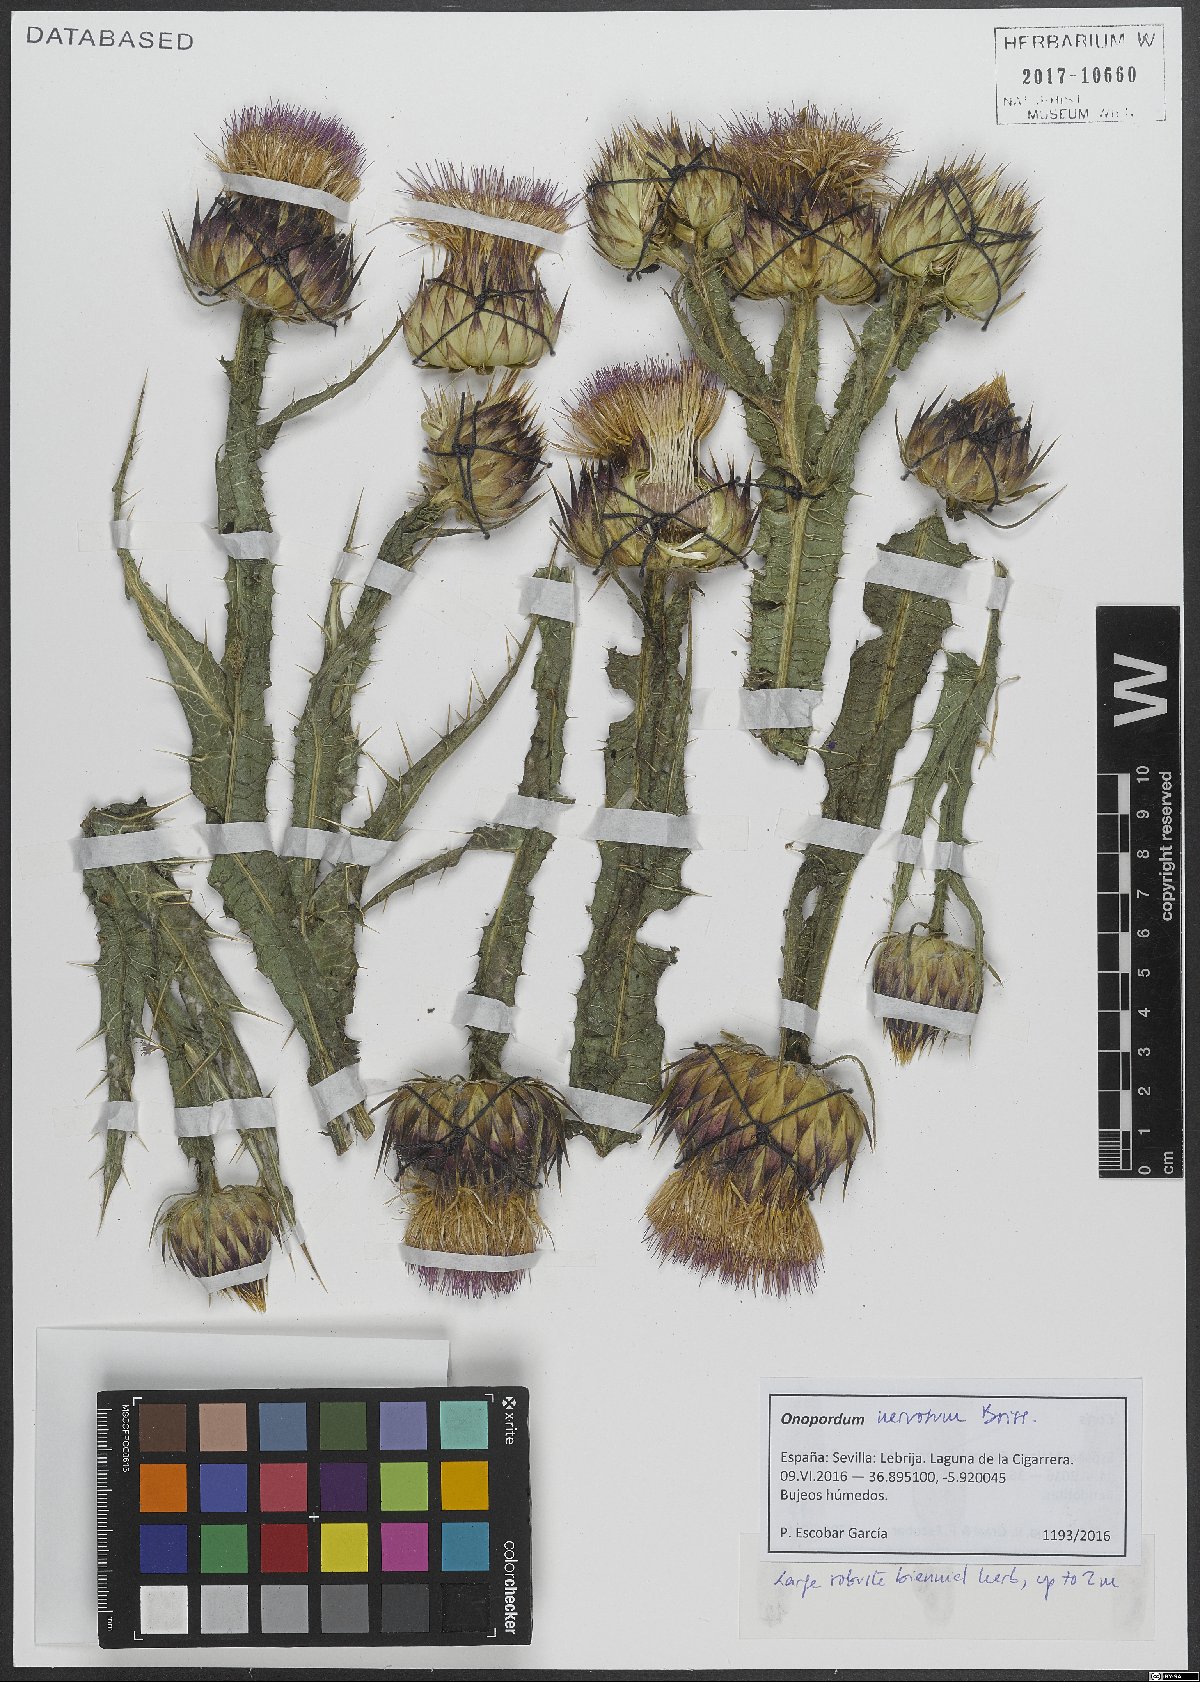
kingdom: Plantae
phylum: Tracheophyta
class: Magnoliopsida
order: Asterales
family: Asteraceae
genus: Onopordum
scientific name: Onopordum nervosum
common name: Reticulate thistle
